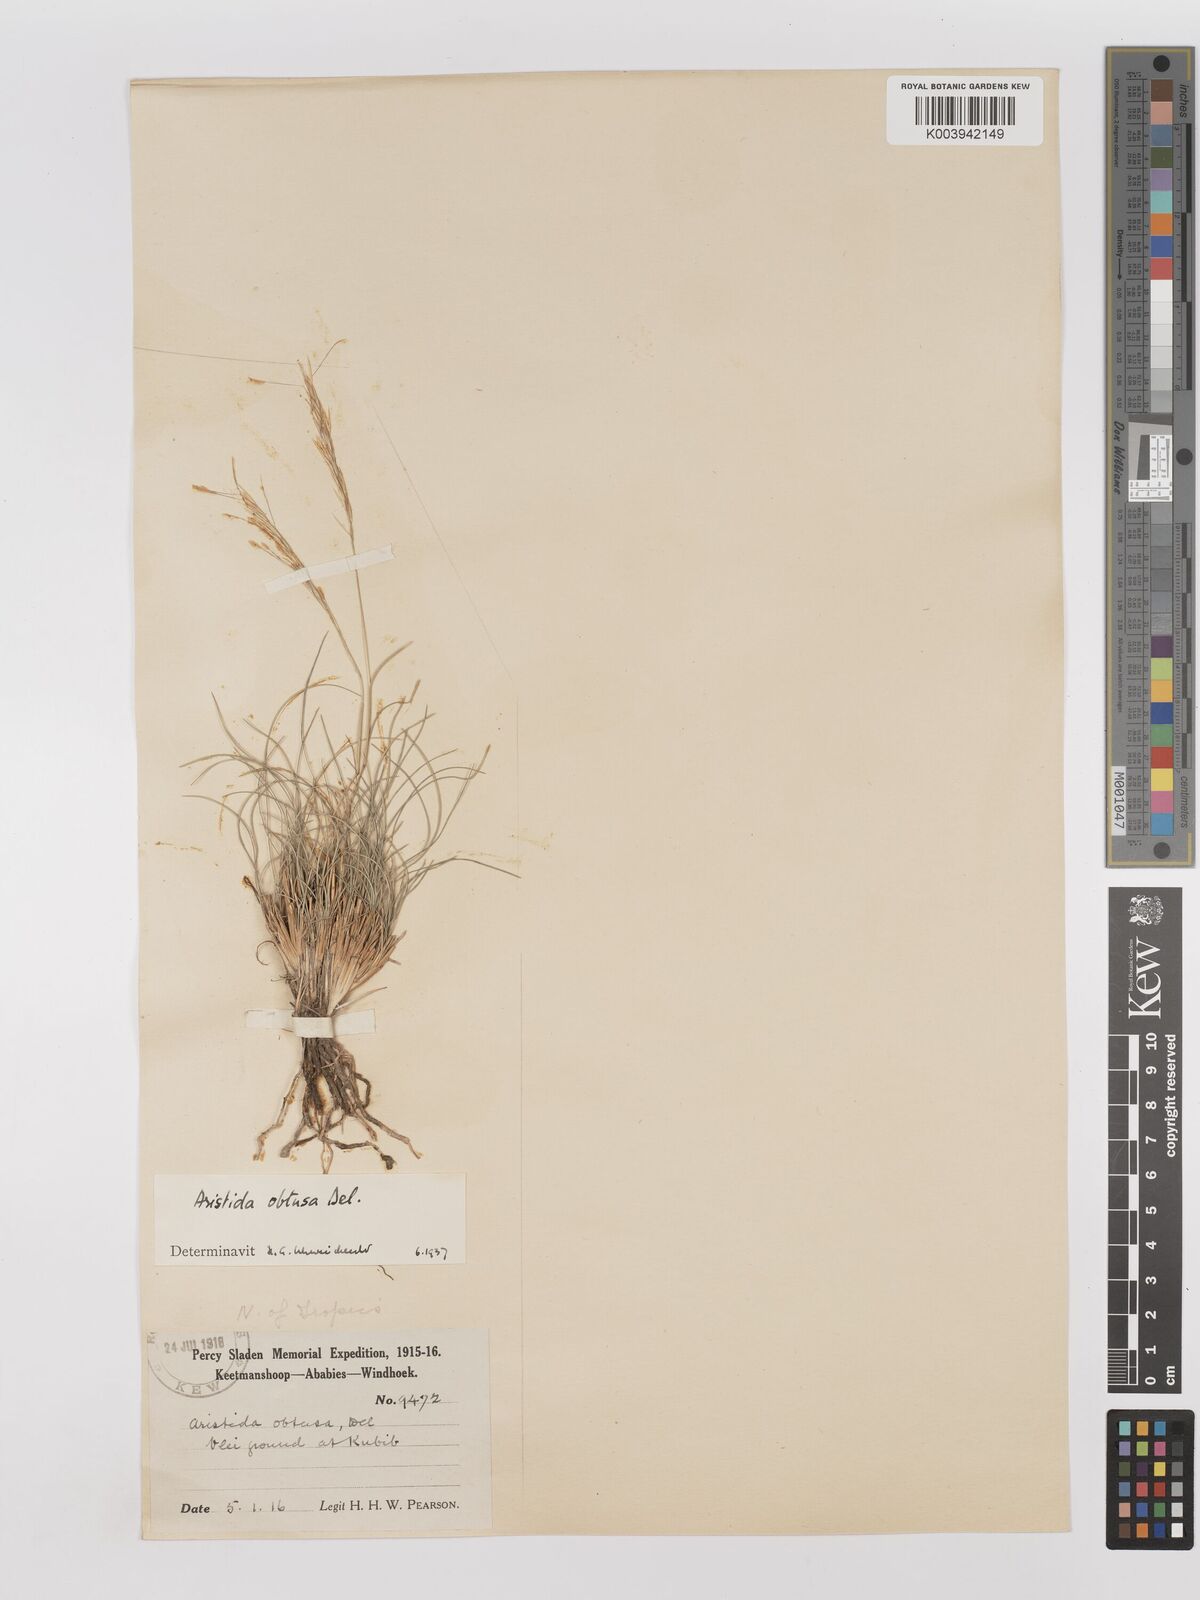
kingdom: Plantae
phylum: Tracheophyta
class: Liliopsida
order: Poales
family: Poaceae
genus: Stipagrostis
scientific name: Stipagrostis obtusa
